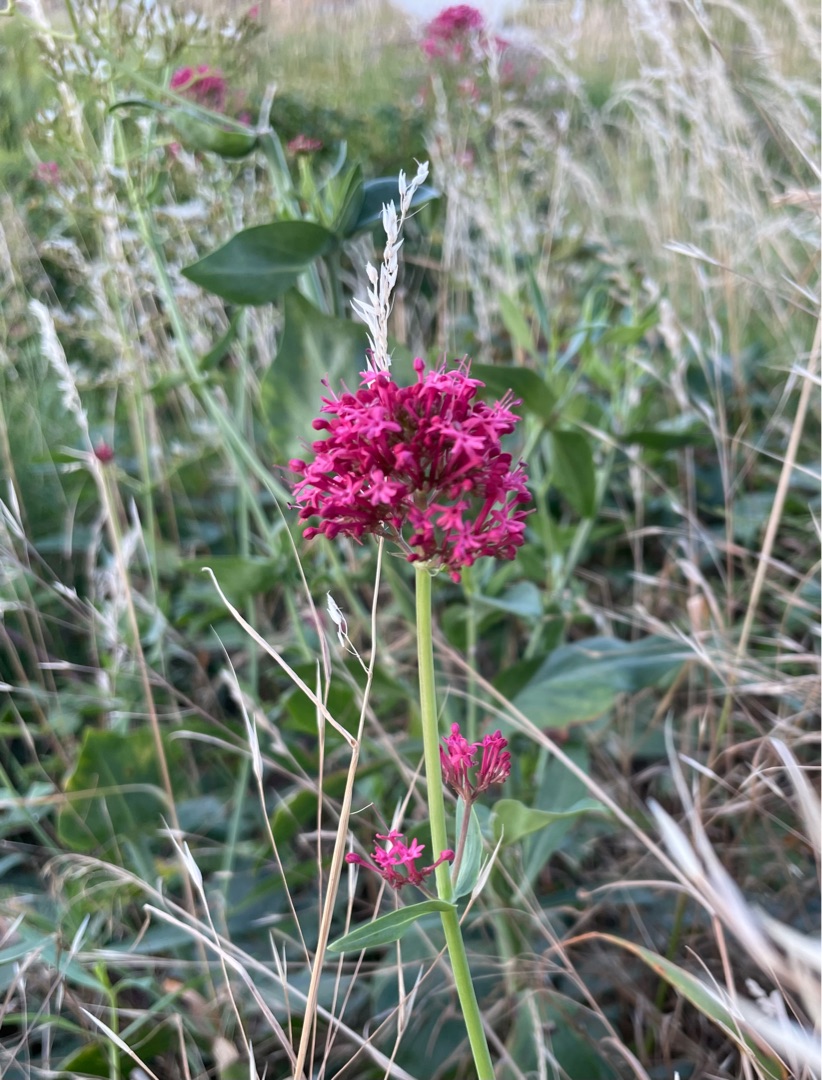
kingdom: Plantae
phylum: Tracheophyta
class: Magnoliopsida
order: Dipsacales
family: Caprifoliaceae
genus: Centranthus
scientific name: Centranthus ruber
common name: Sporebaldrian
